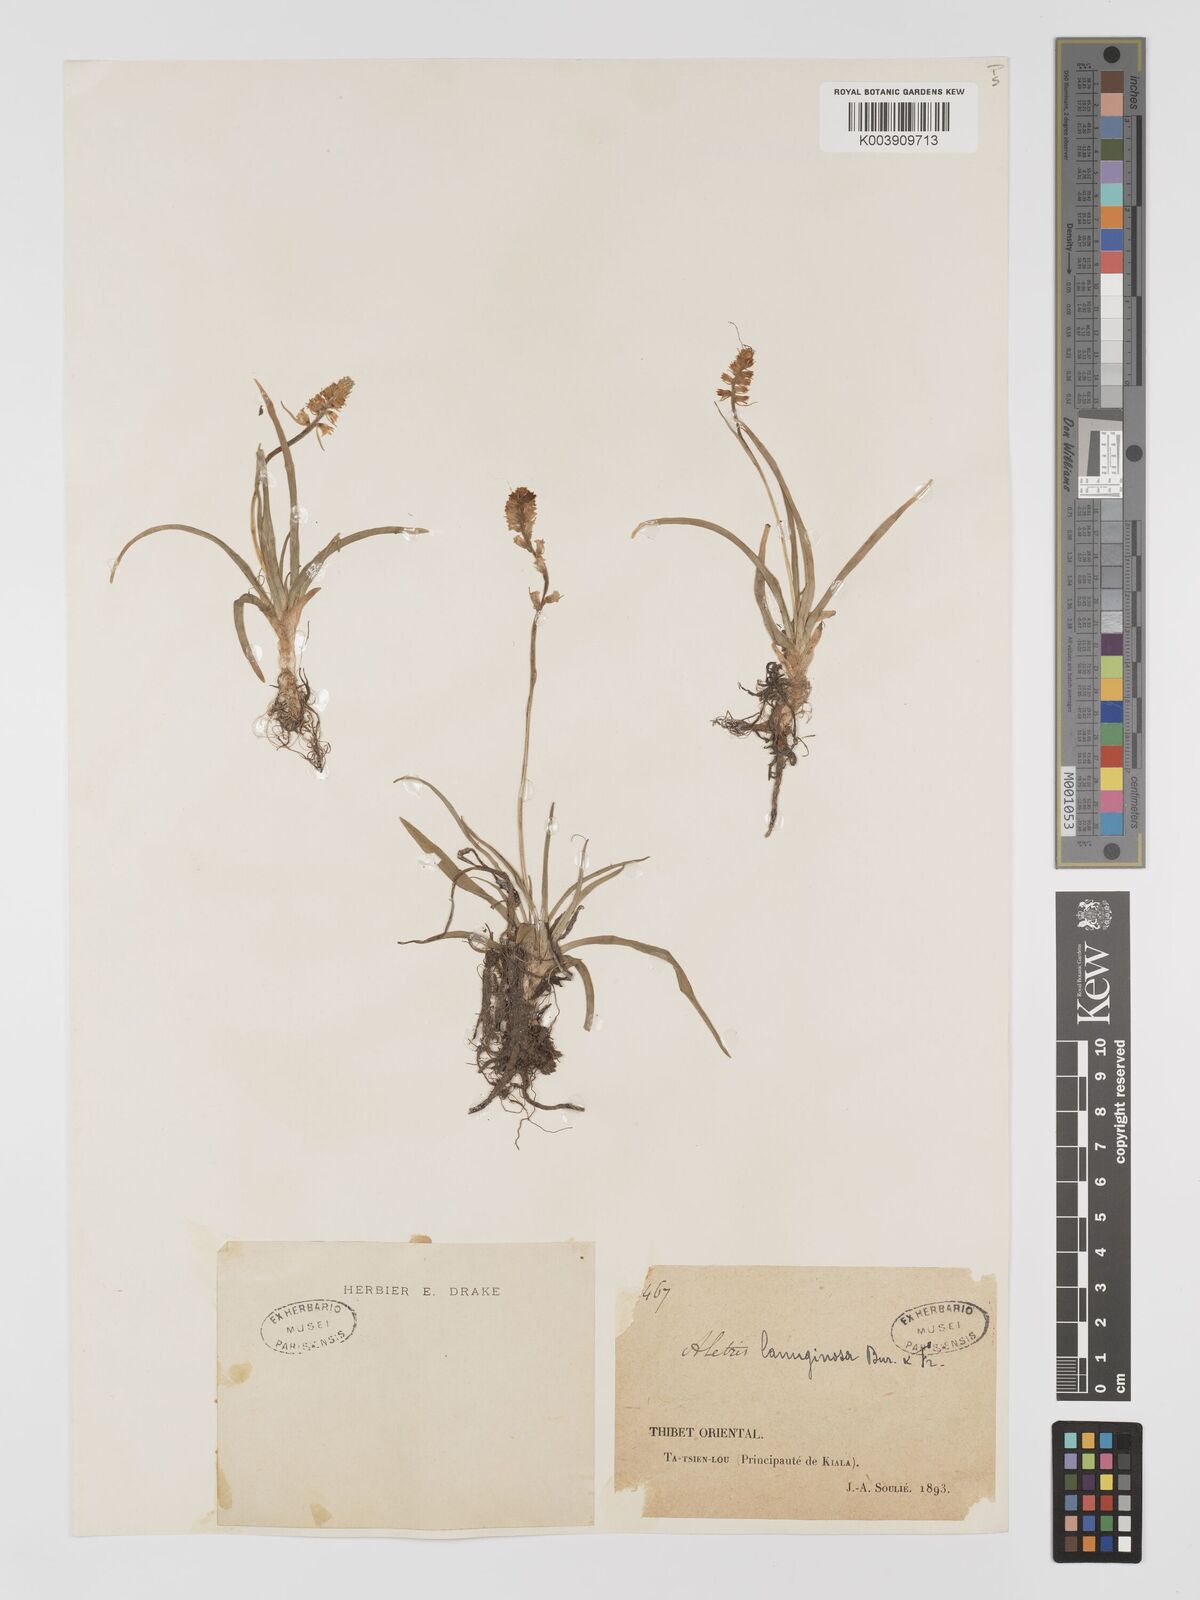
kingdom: Plantae
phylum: Tracheophyta
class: Liliopsida
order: Dioscoreales
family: Nartheciaceae
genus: Aletris
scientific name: Aletris pauciflora
